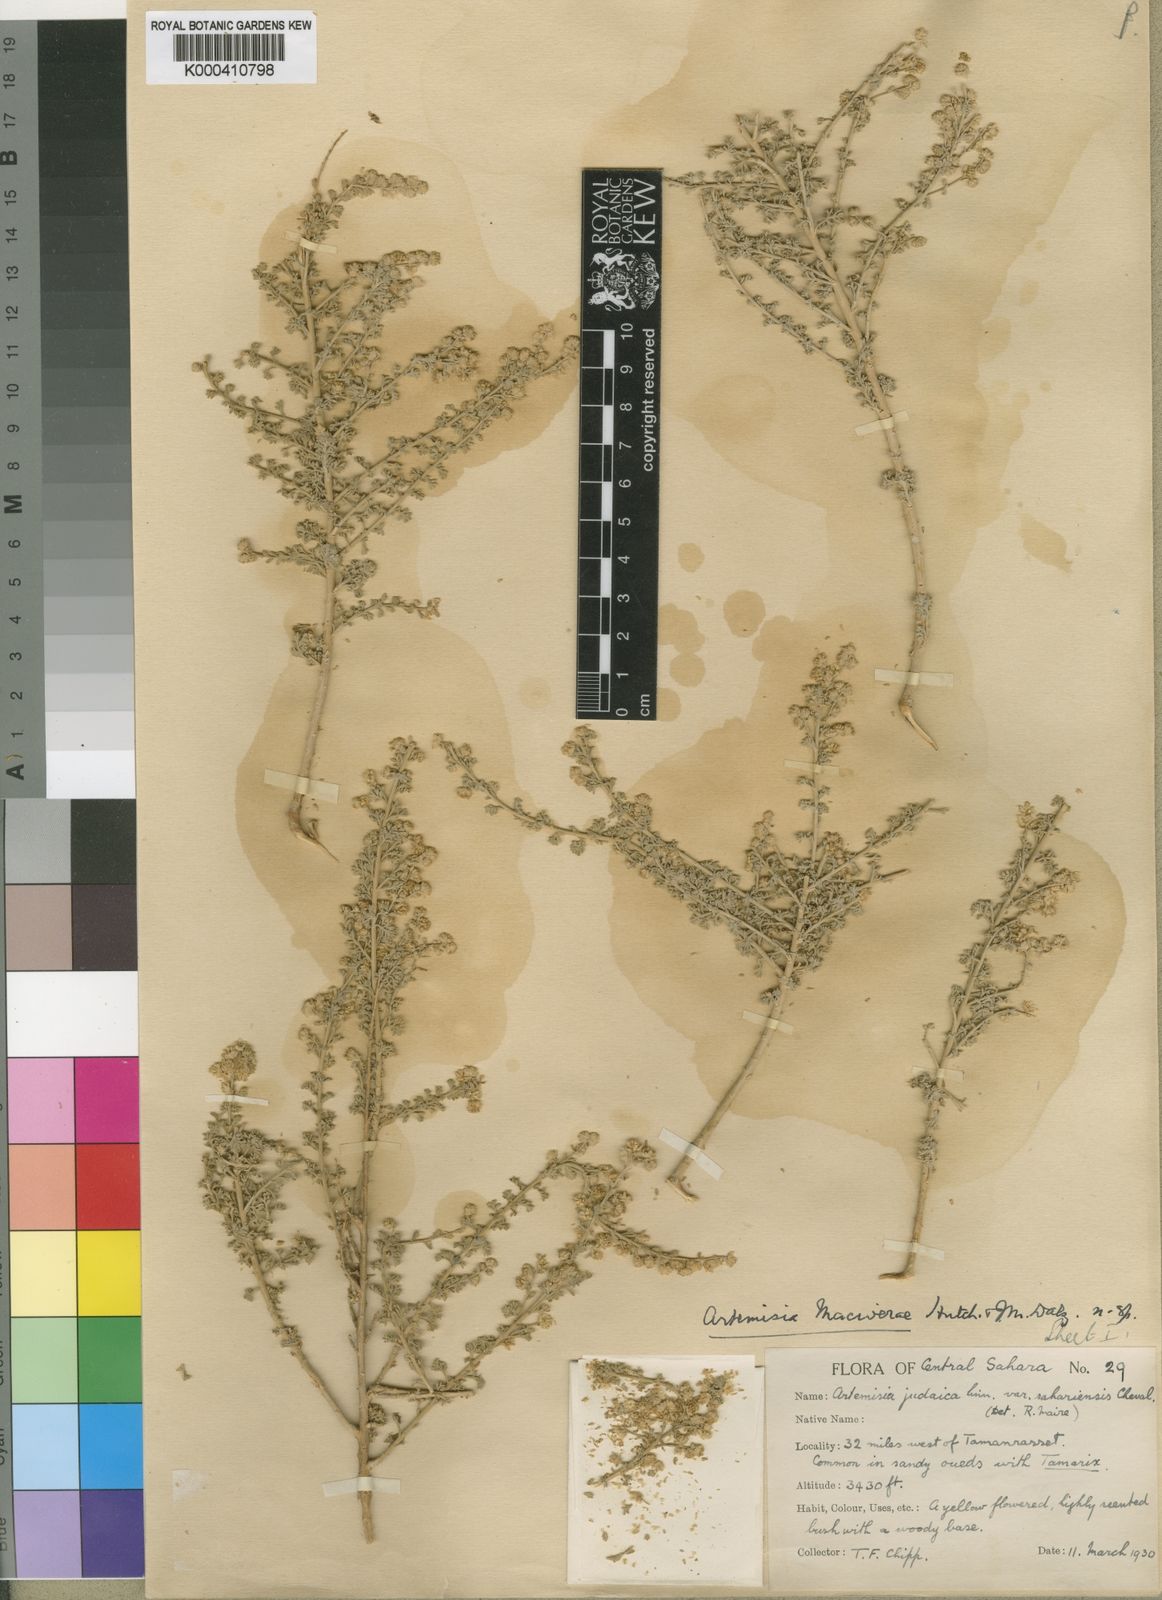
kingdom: Plantae
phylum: Tracheophyta
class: Magnoliopsida
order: Asterales
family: Asteraceae
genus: Artemisia
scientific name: Artemisia judaica
